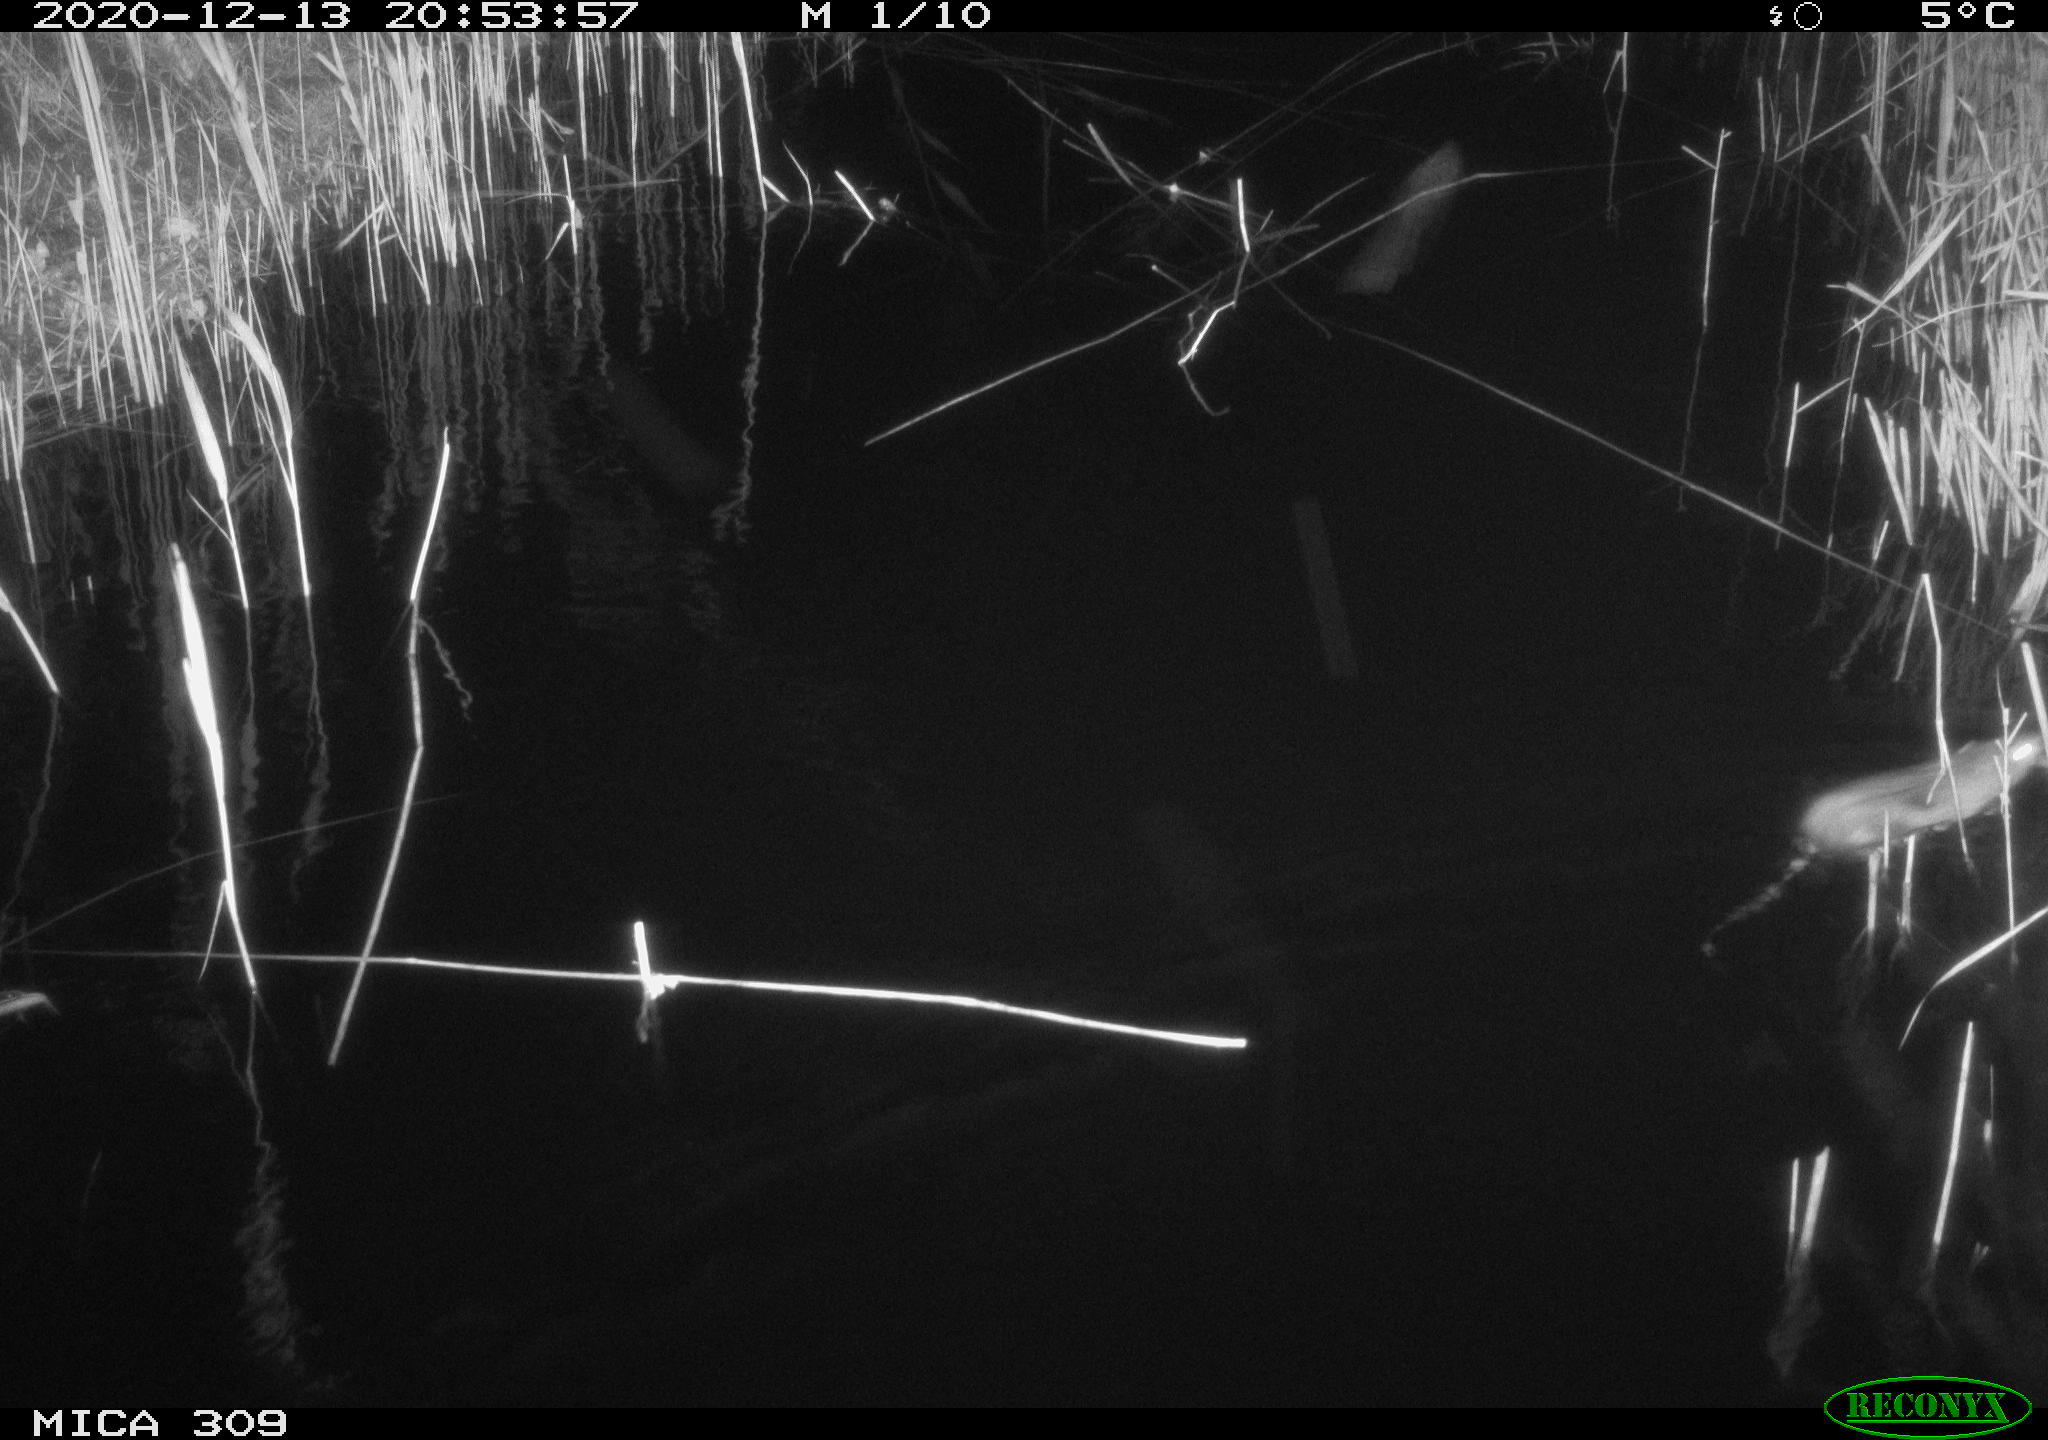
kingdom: Animalia
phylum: Chordata
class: Mammalia
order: Rodentia
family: Muridae
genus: Rattus
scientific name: Rattus norvegicus
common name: Brown rat
